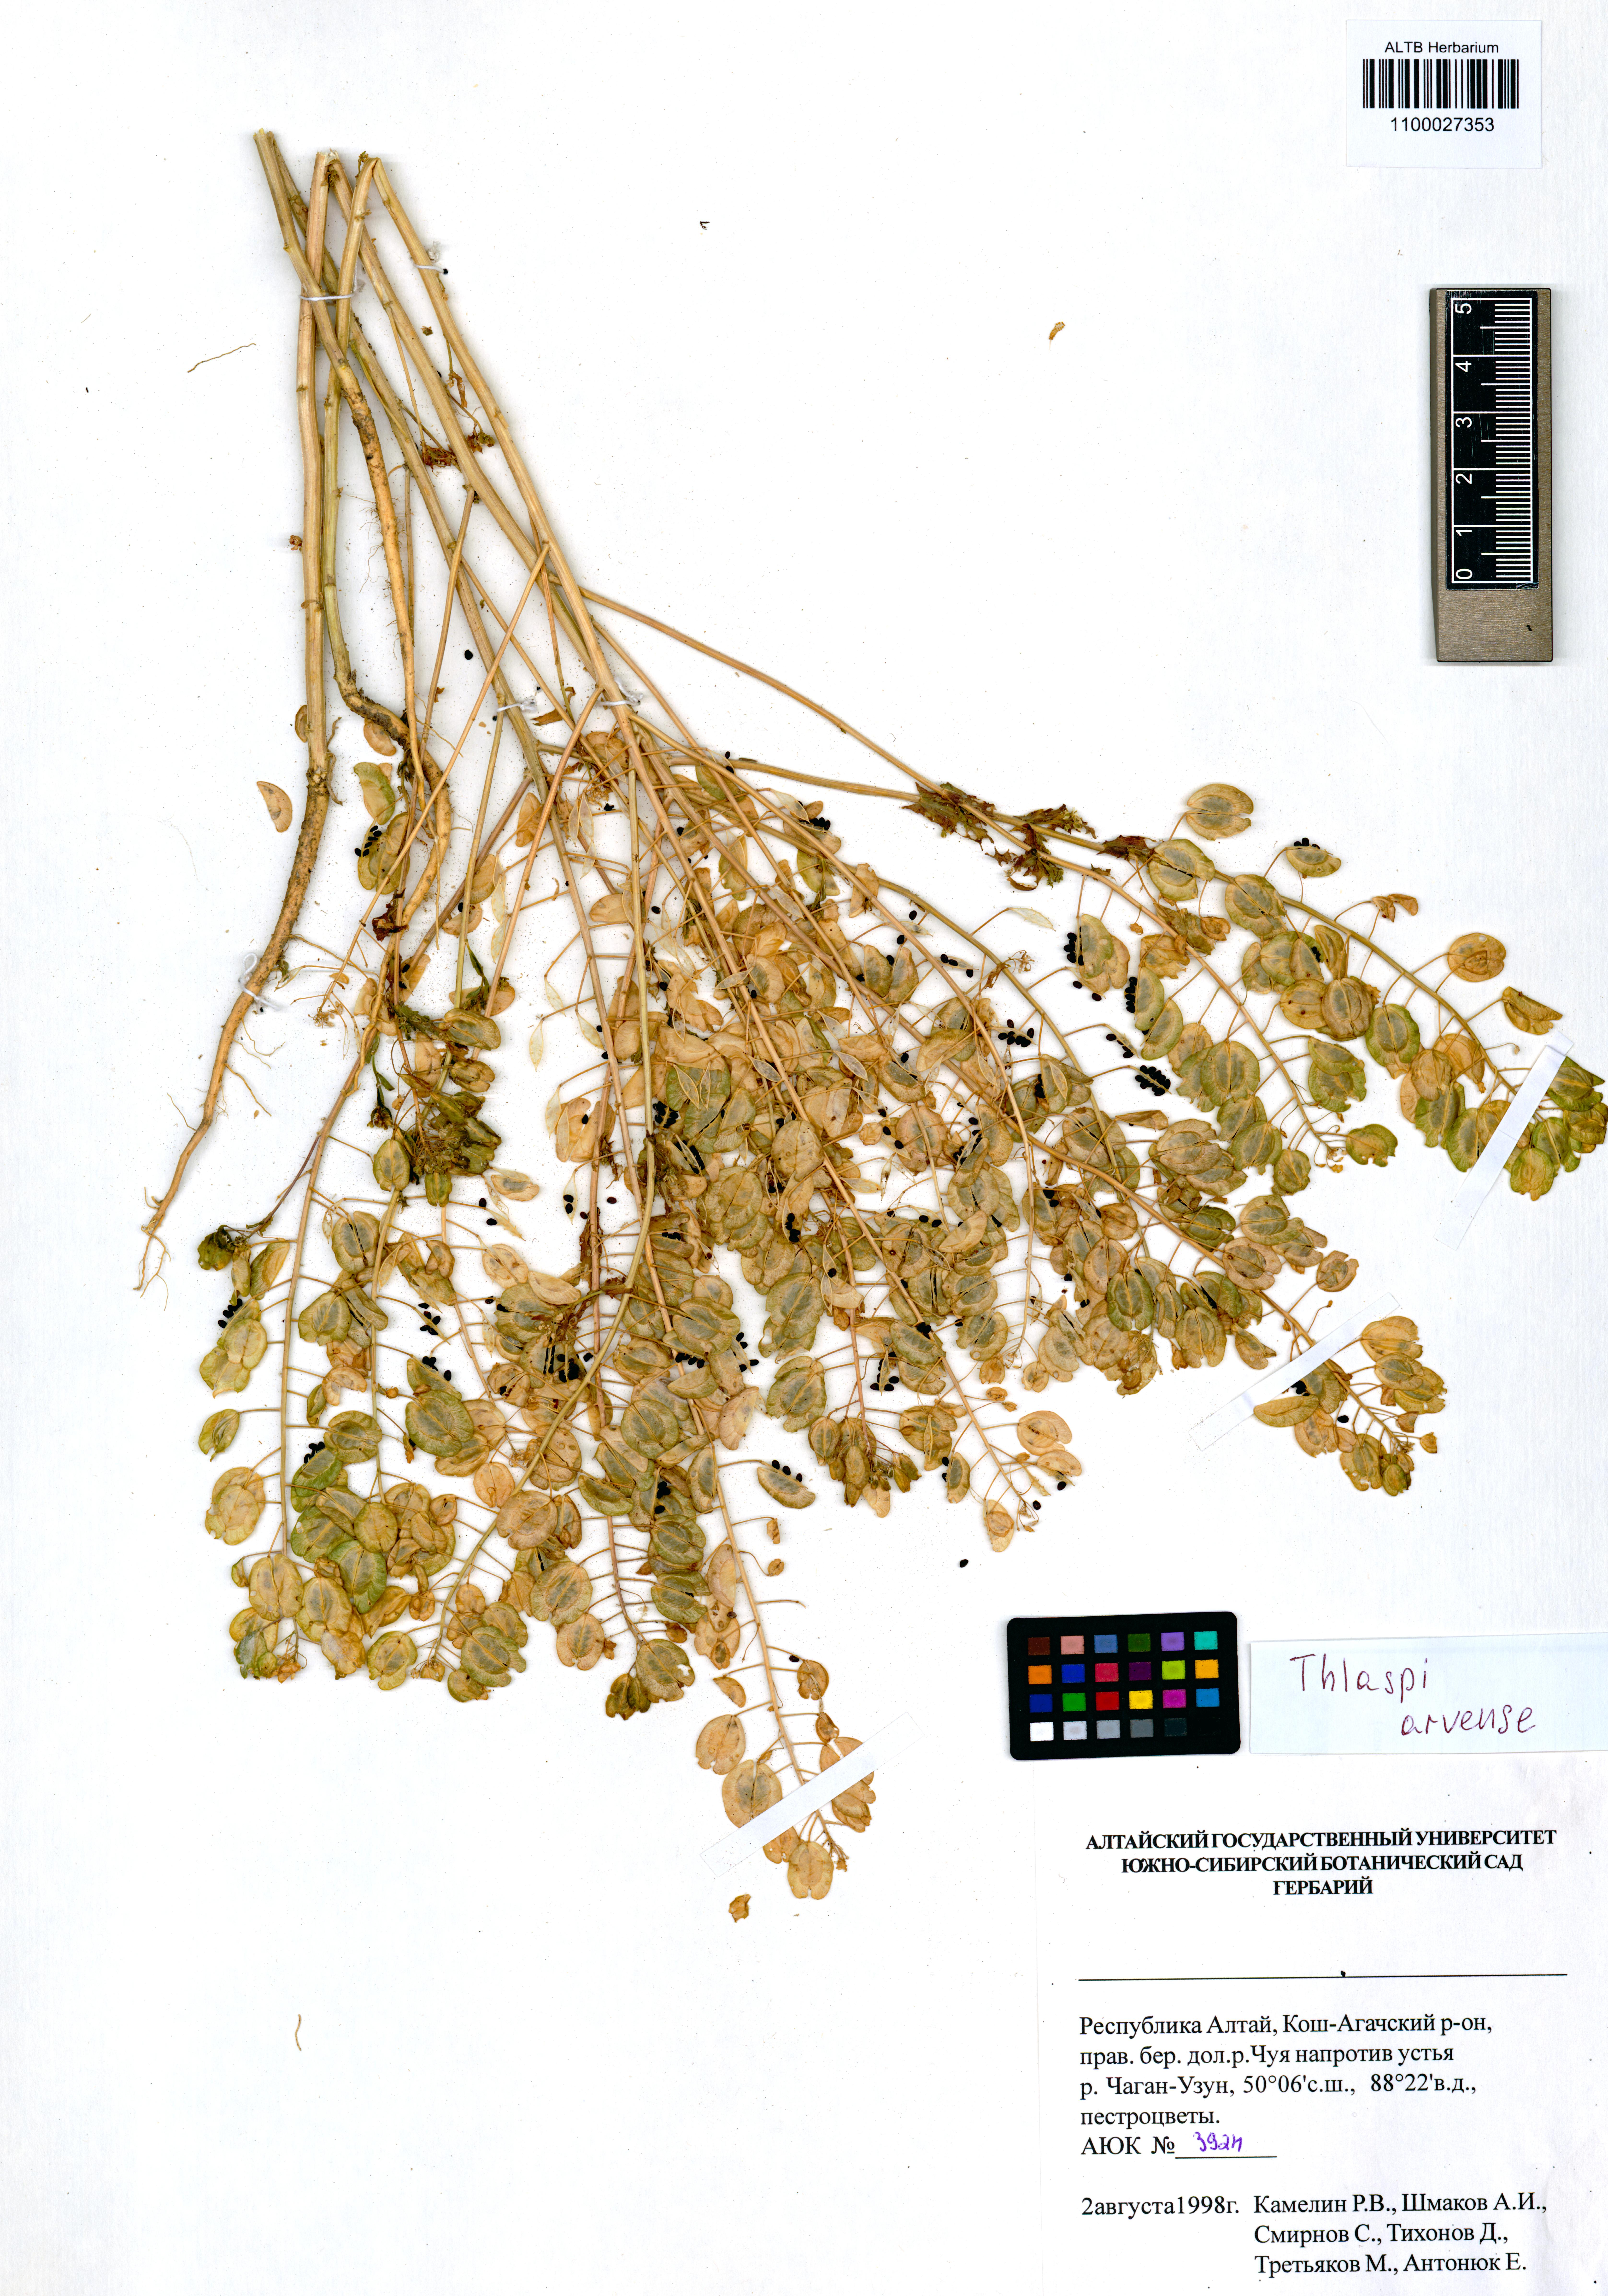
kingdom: Plantae
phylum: Tracheophyta
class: Magnoliopsida
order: Brassicales
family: Brassicaceae
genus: Thlaspi
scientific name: Thlaspi arvense
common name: Field pennycress
